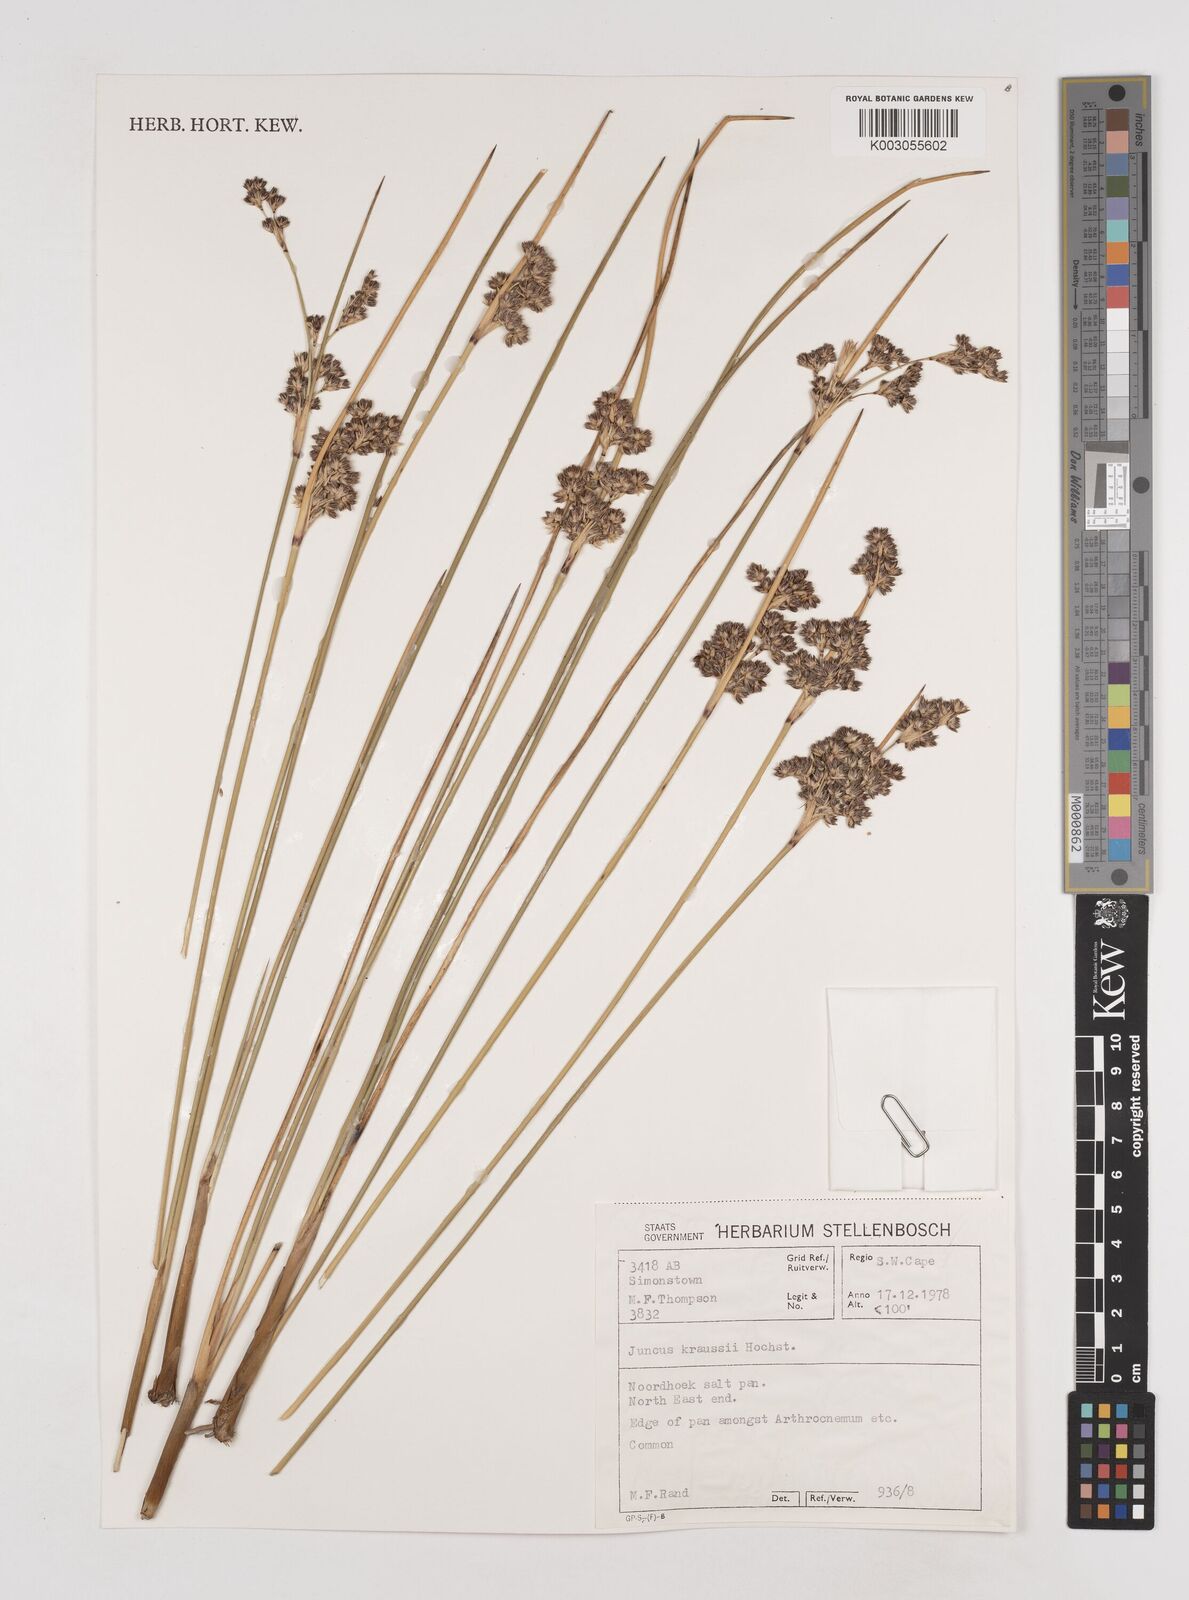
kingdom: Plantae
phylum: Tracheophyta
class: Liliopsida
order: Poales
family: Juncaceae
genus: Juncus
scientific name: Juncus kraussii
